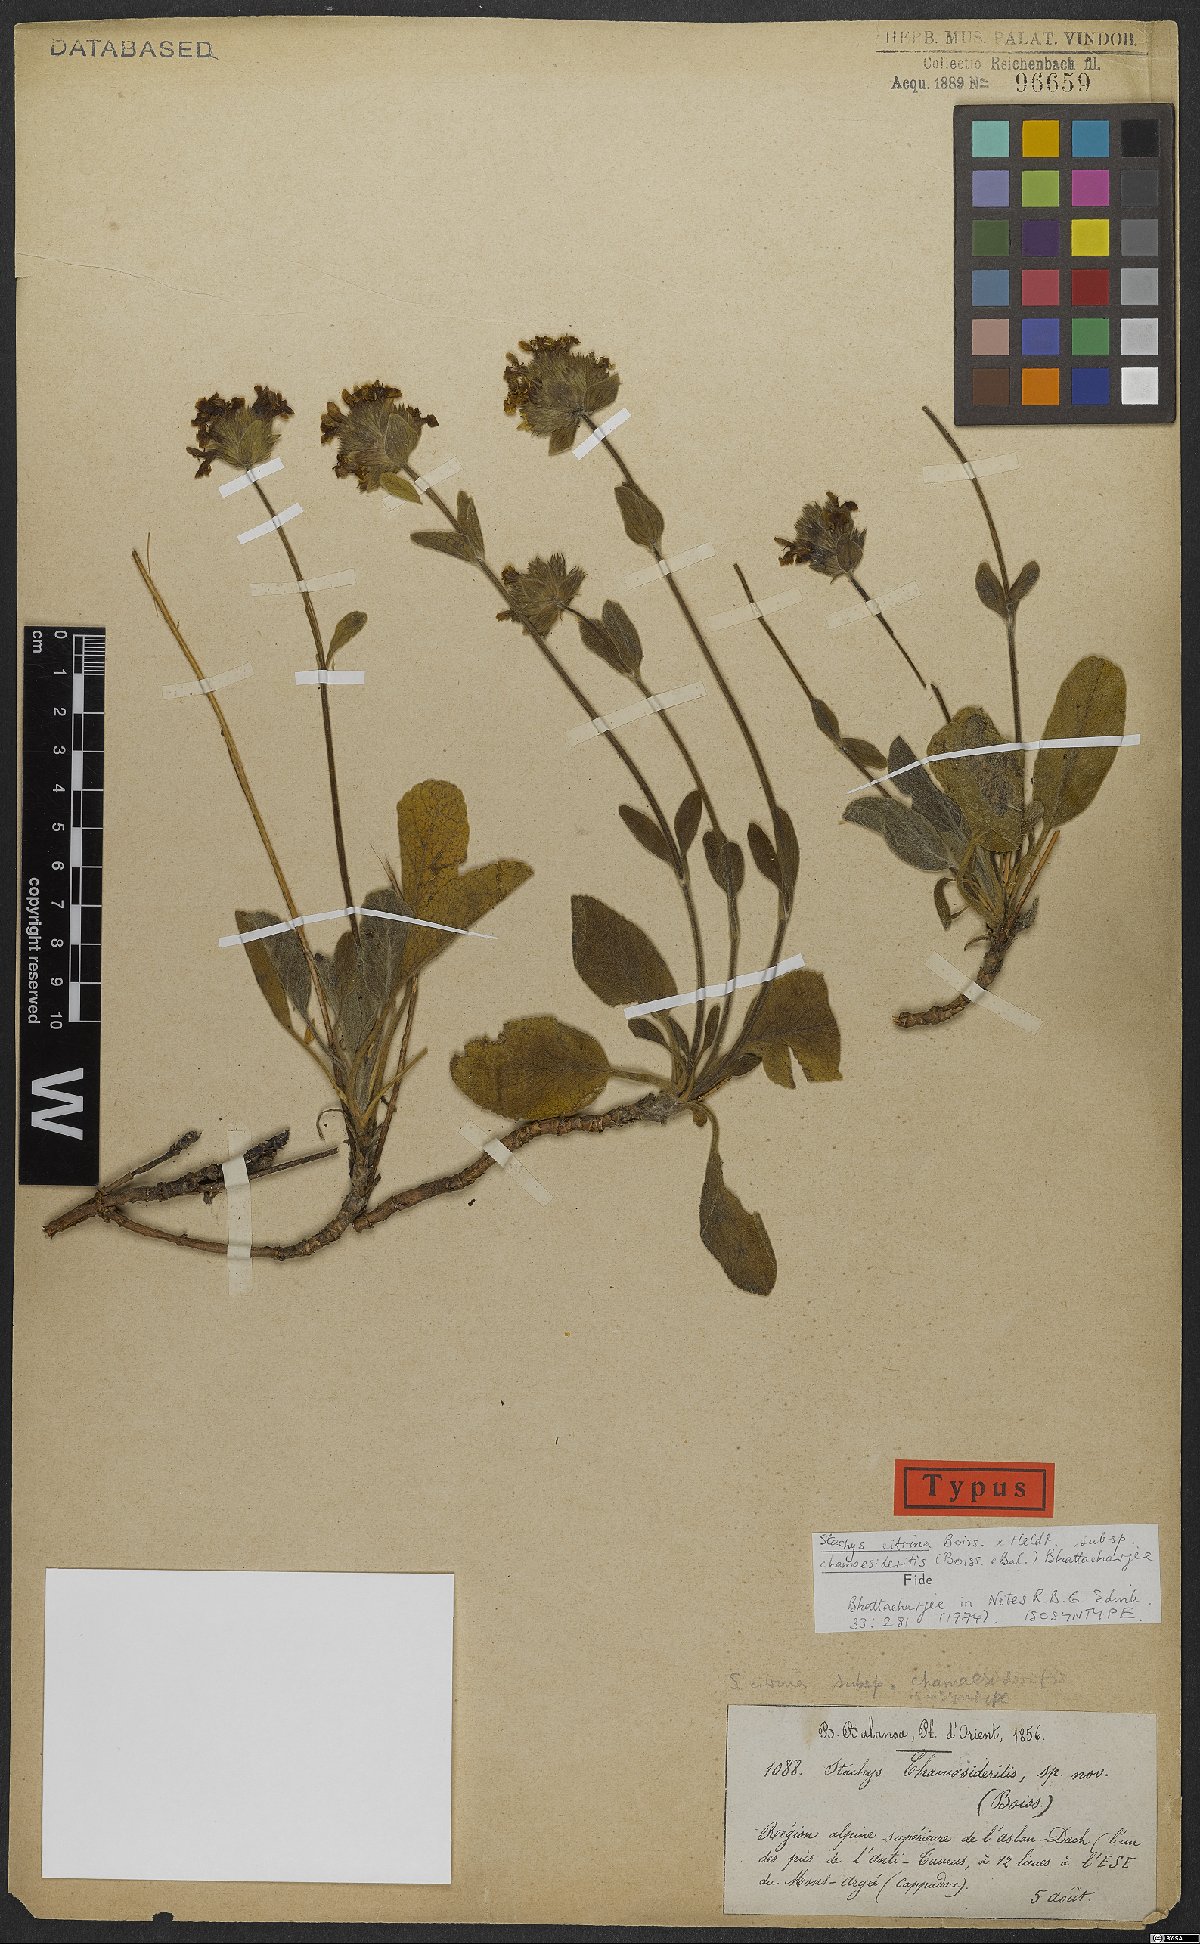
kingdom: Plantae
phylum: Tracheophyta
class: Magnoliopsida
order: Lamiales
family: Lamiaceae
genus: Stachys
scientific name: Stachys citrina
